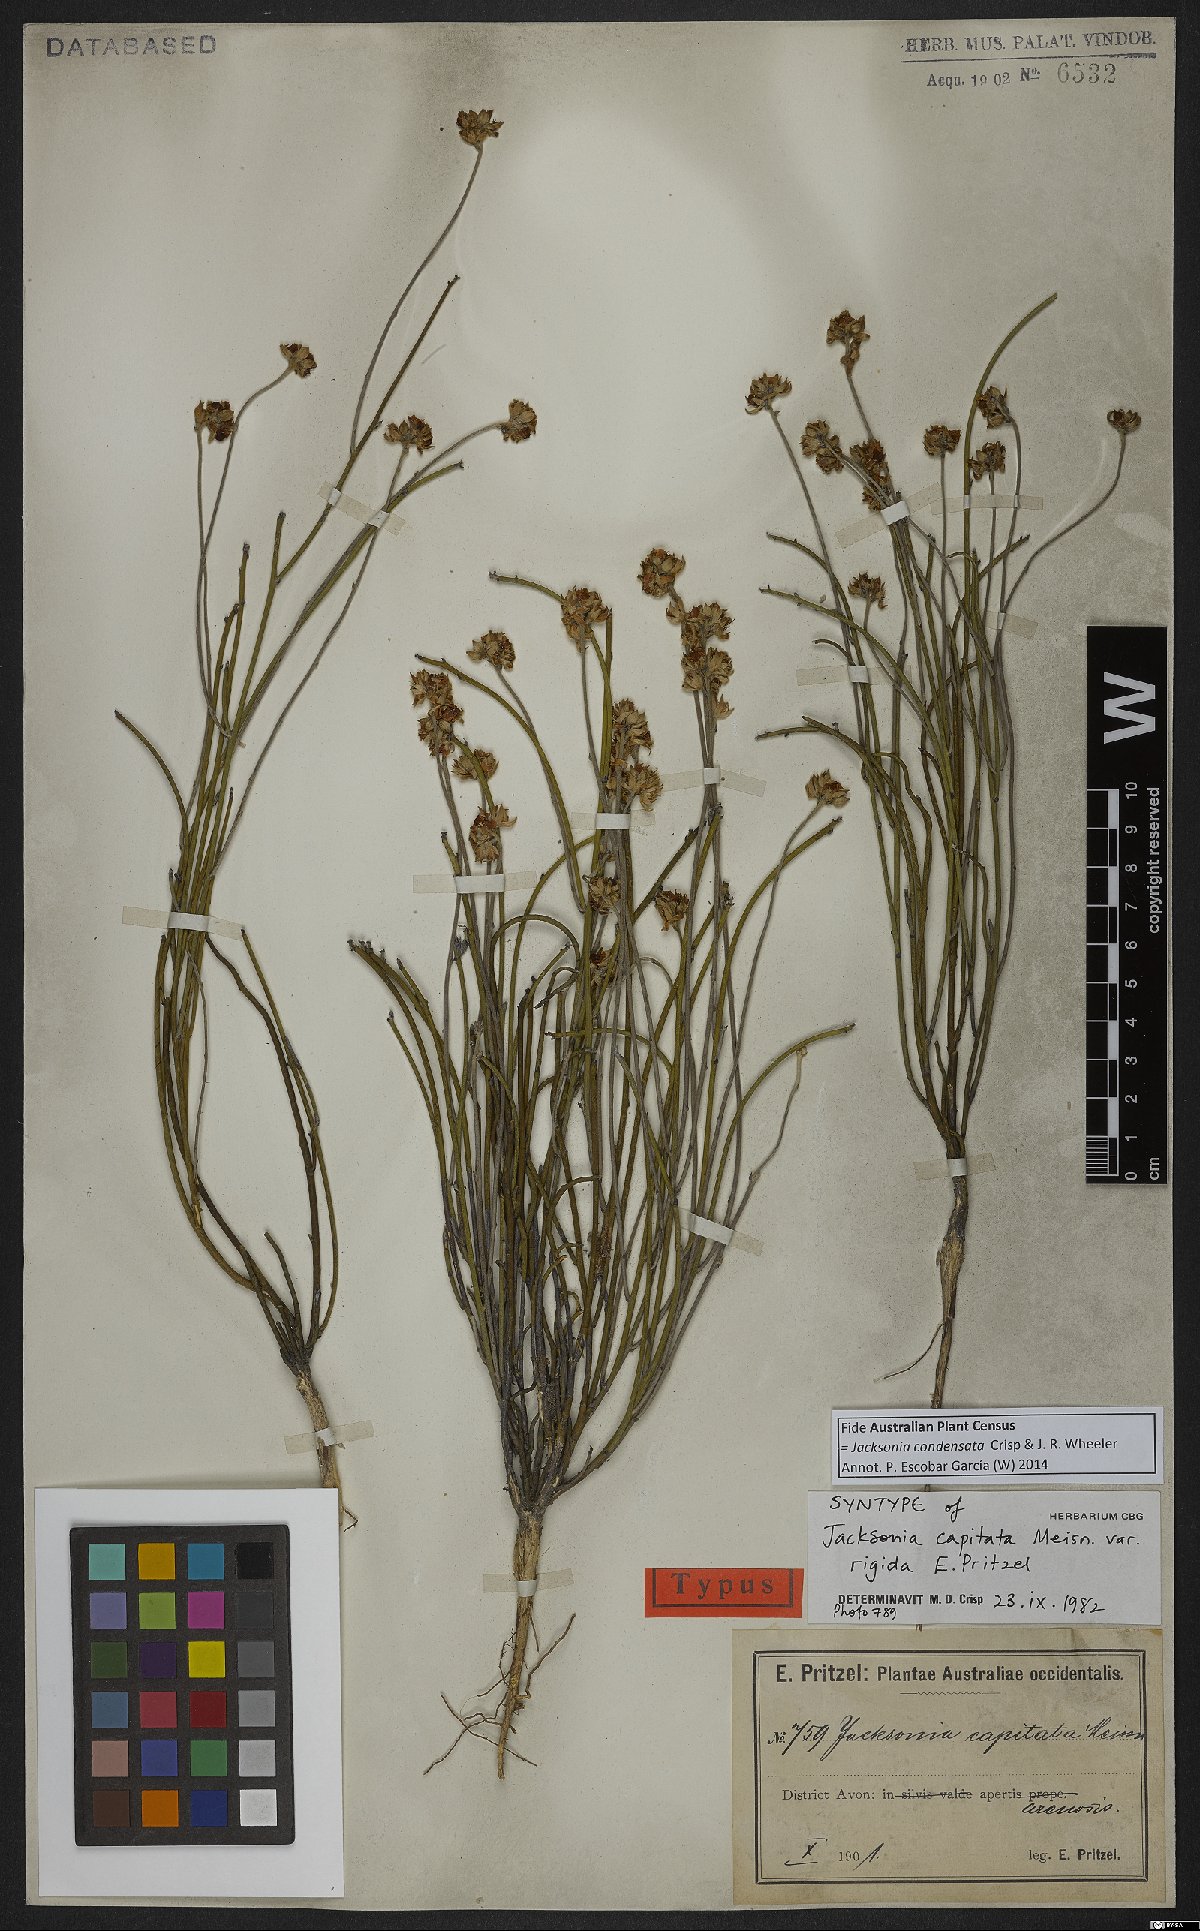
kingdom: Plantae
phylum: Tracheophyta
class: Magnoliopsida
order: Fabales
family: Fabaceae
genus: Jacksonia
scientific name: Jacksonia condensata
